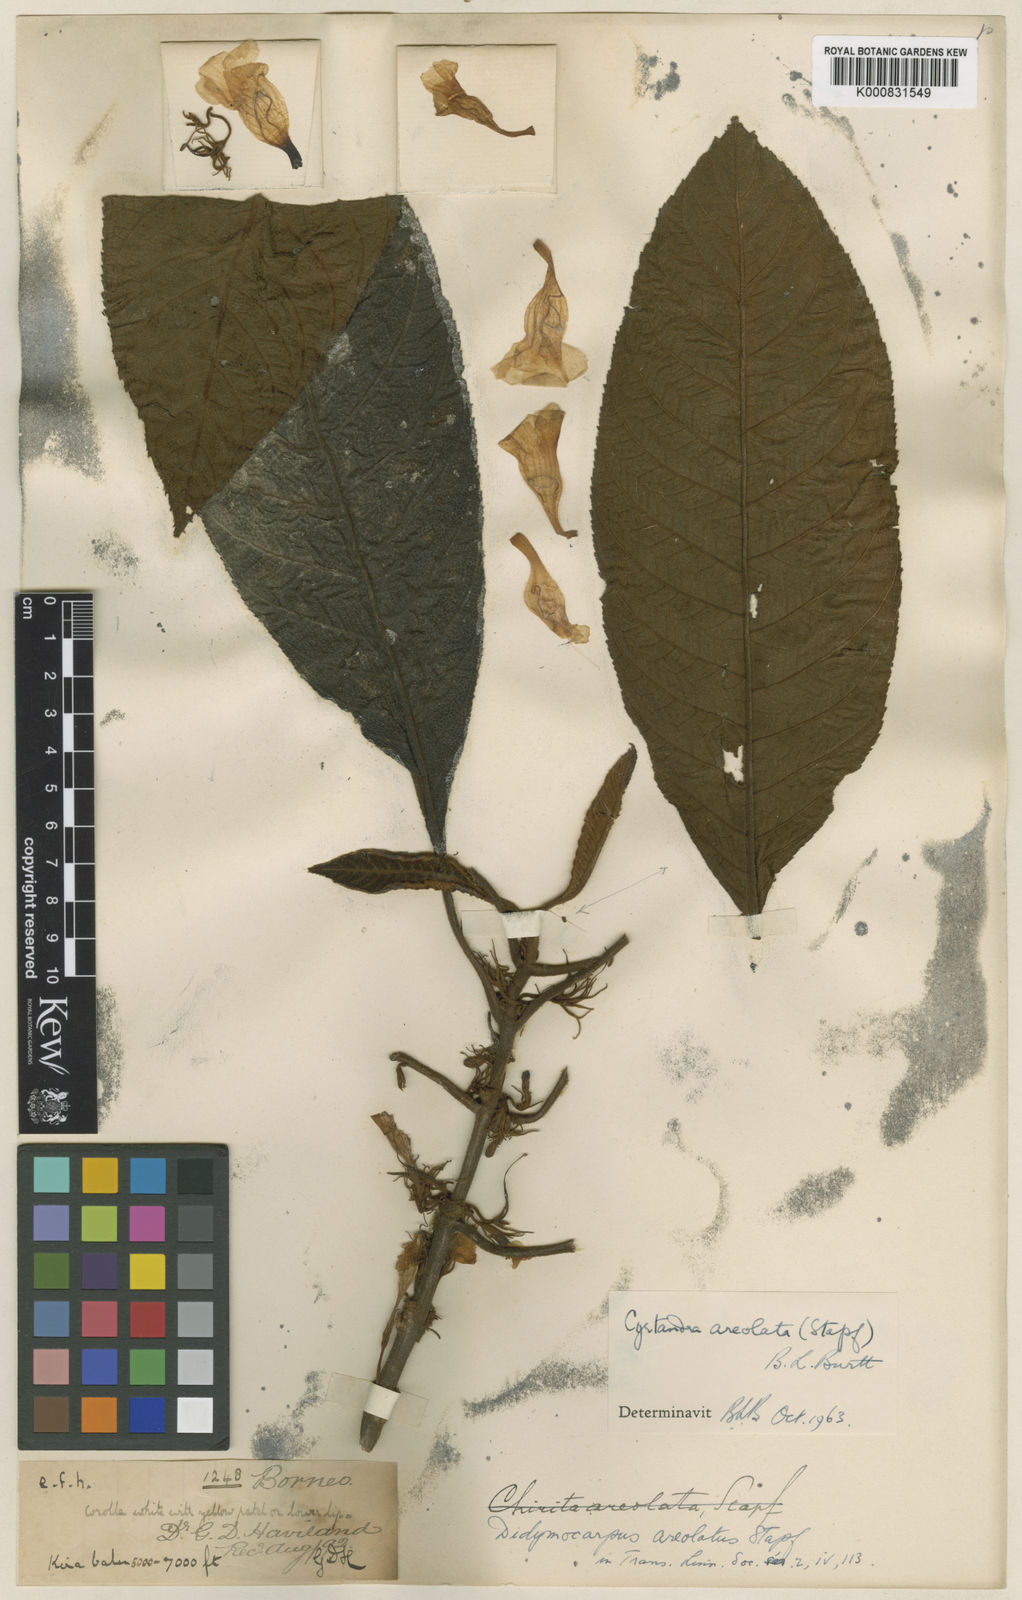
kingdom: Plantae
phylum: Tracheophyta
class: Magnoliopsida
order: Lamiales
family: Gesneriaceae
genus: Cyrtandra
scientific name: Cyrtandra areolata
